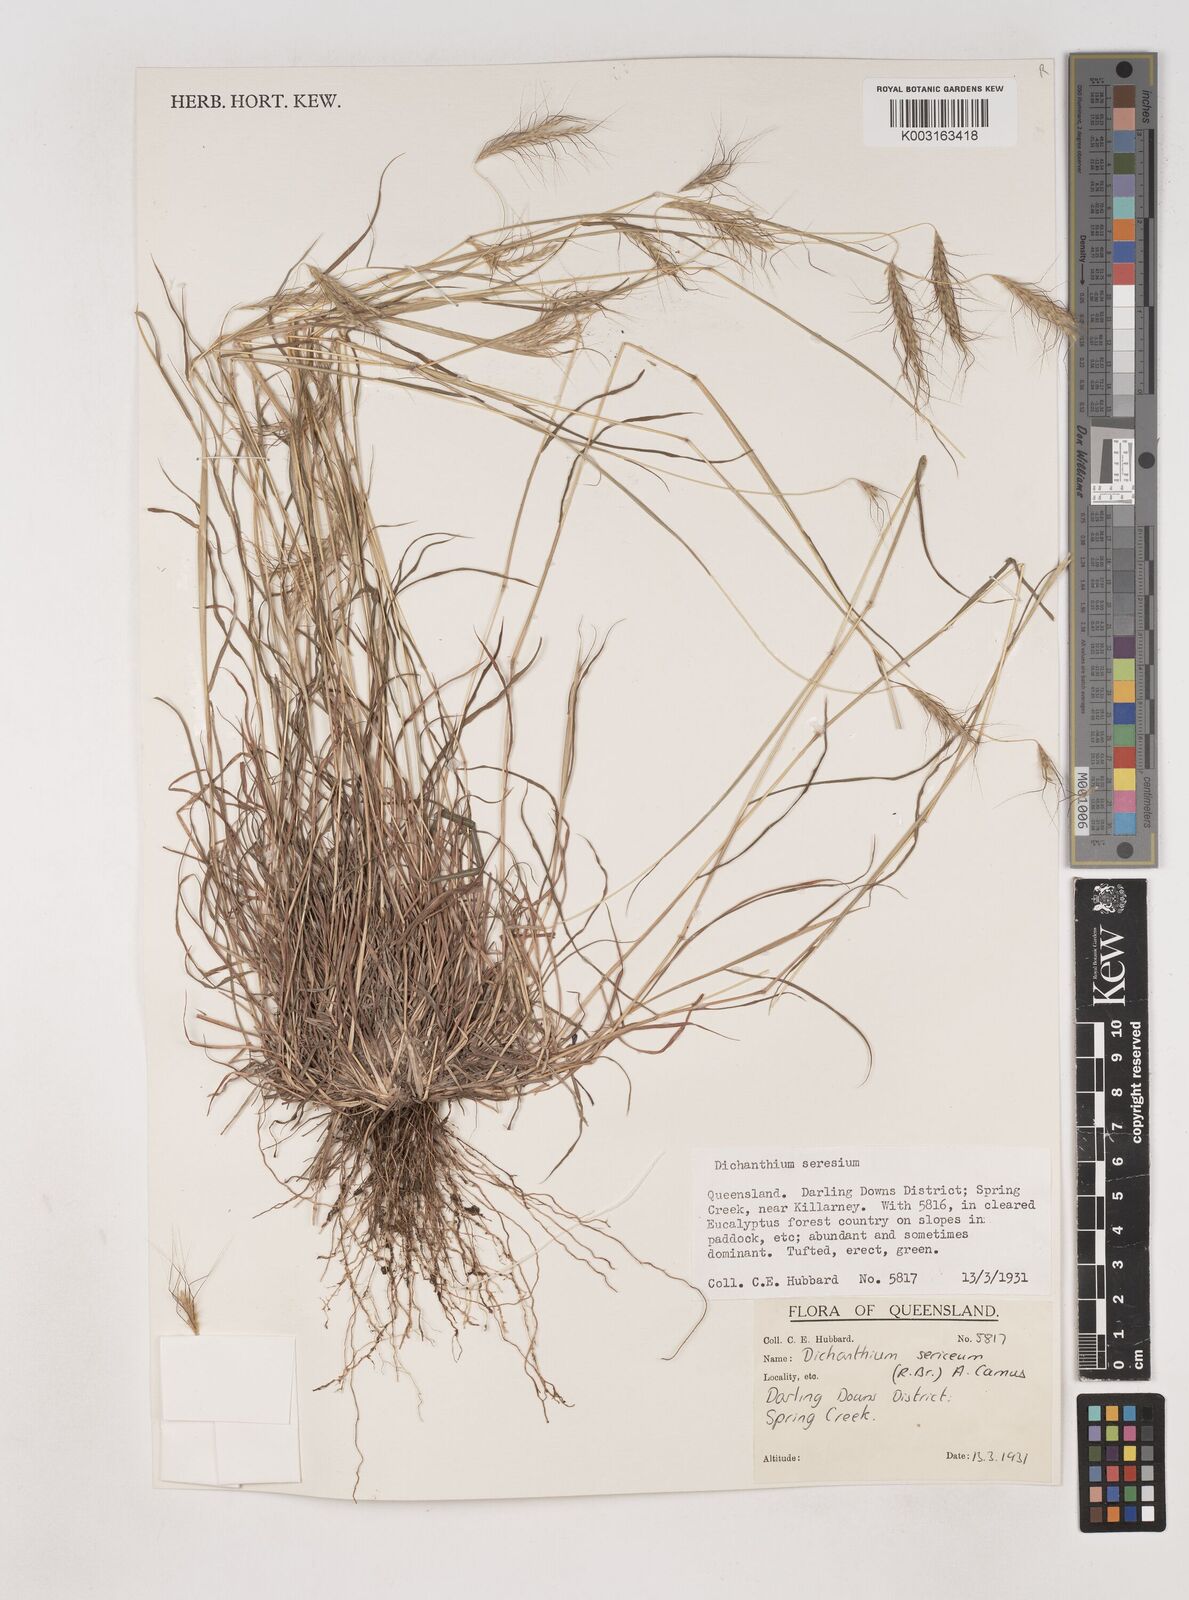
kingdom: Plantae
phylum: Tracheophyta
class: Liliopsida
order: Poales
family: Poaceae
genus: Dichanthium
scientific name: Dichanthium sericeum
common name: Silky bluestem
